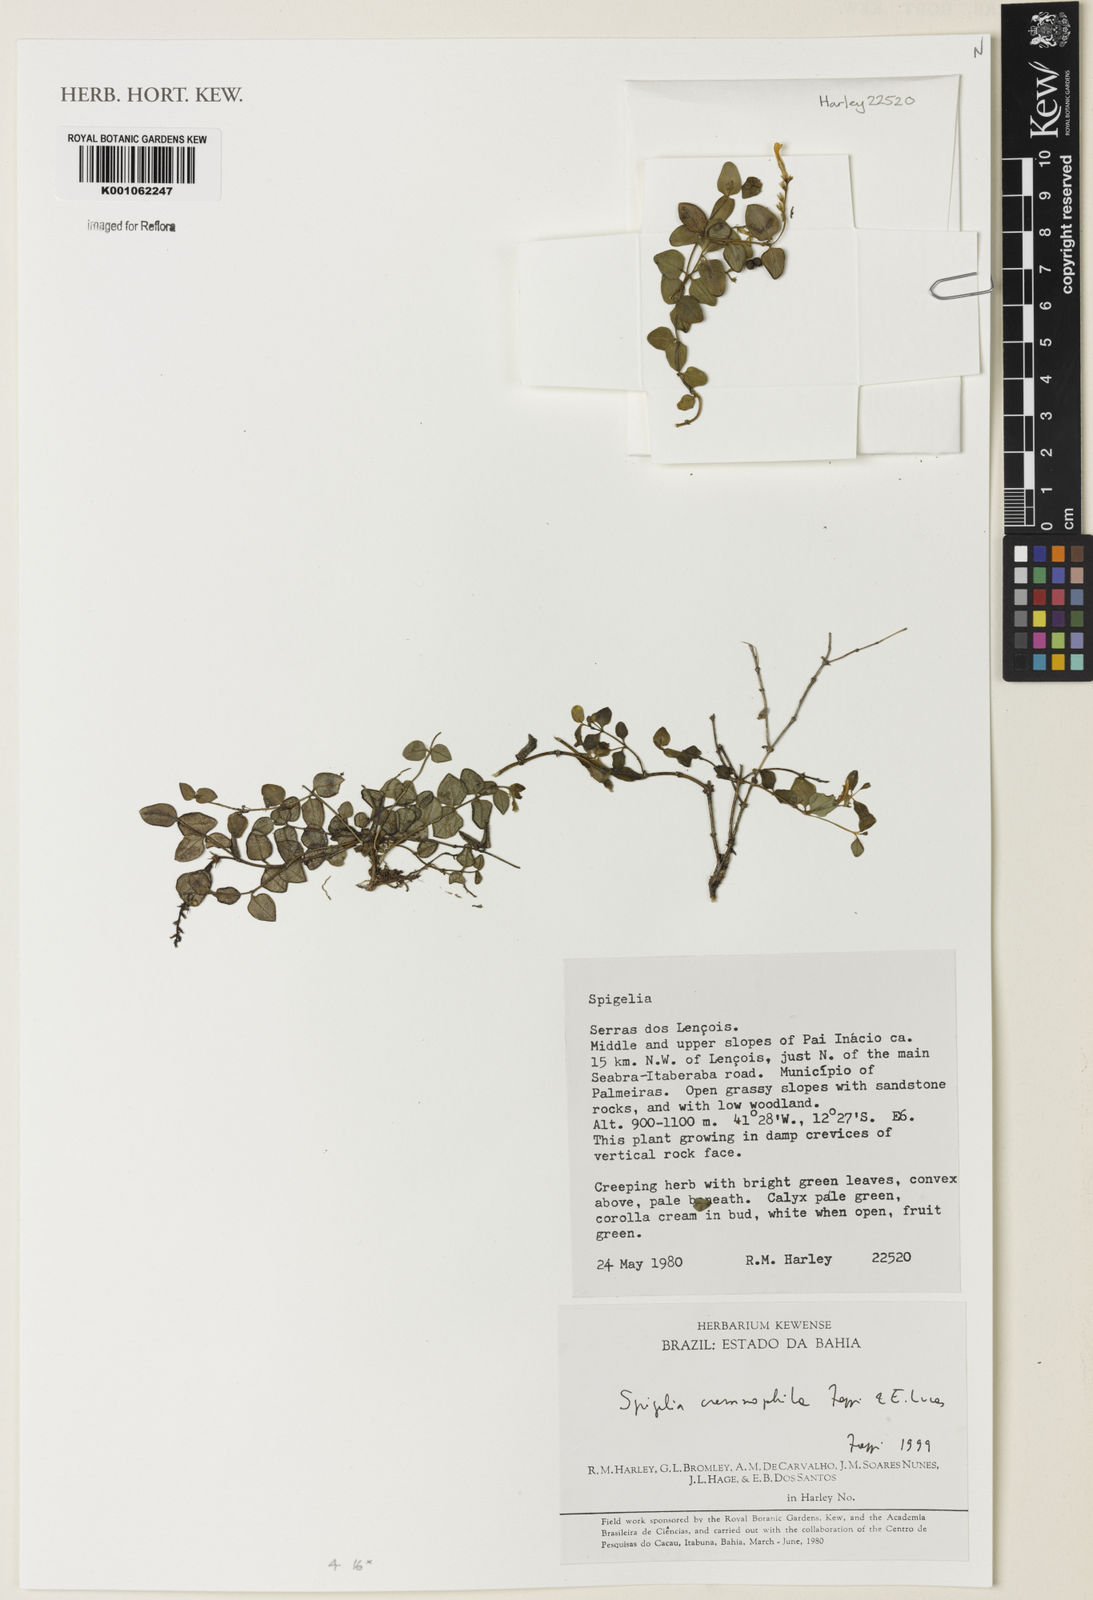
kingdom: Plantae
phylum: Tracheophyta
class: Magnoliopsida
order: Gentianales
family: Loganiaceae
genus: Spigelia
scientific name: Spigelia cremnophila
